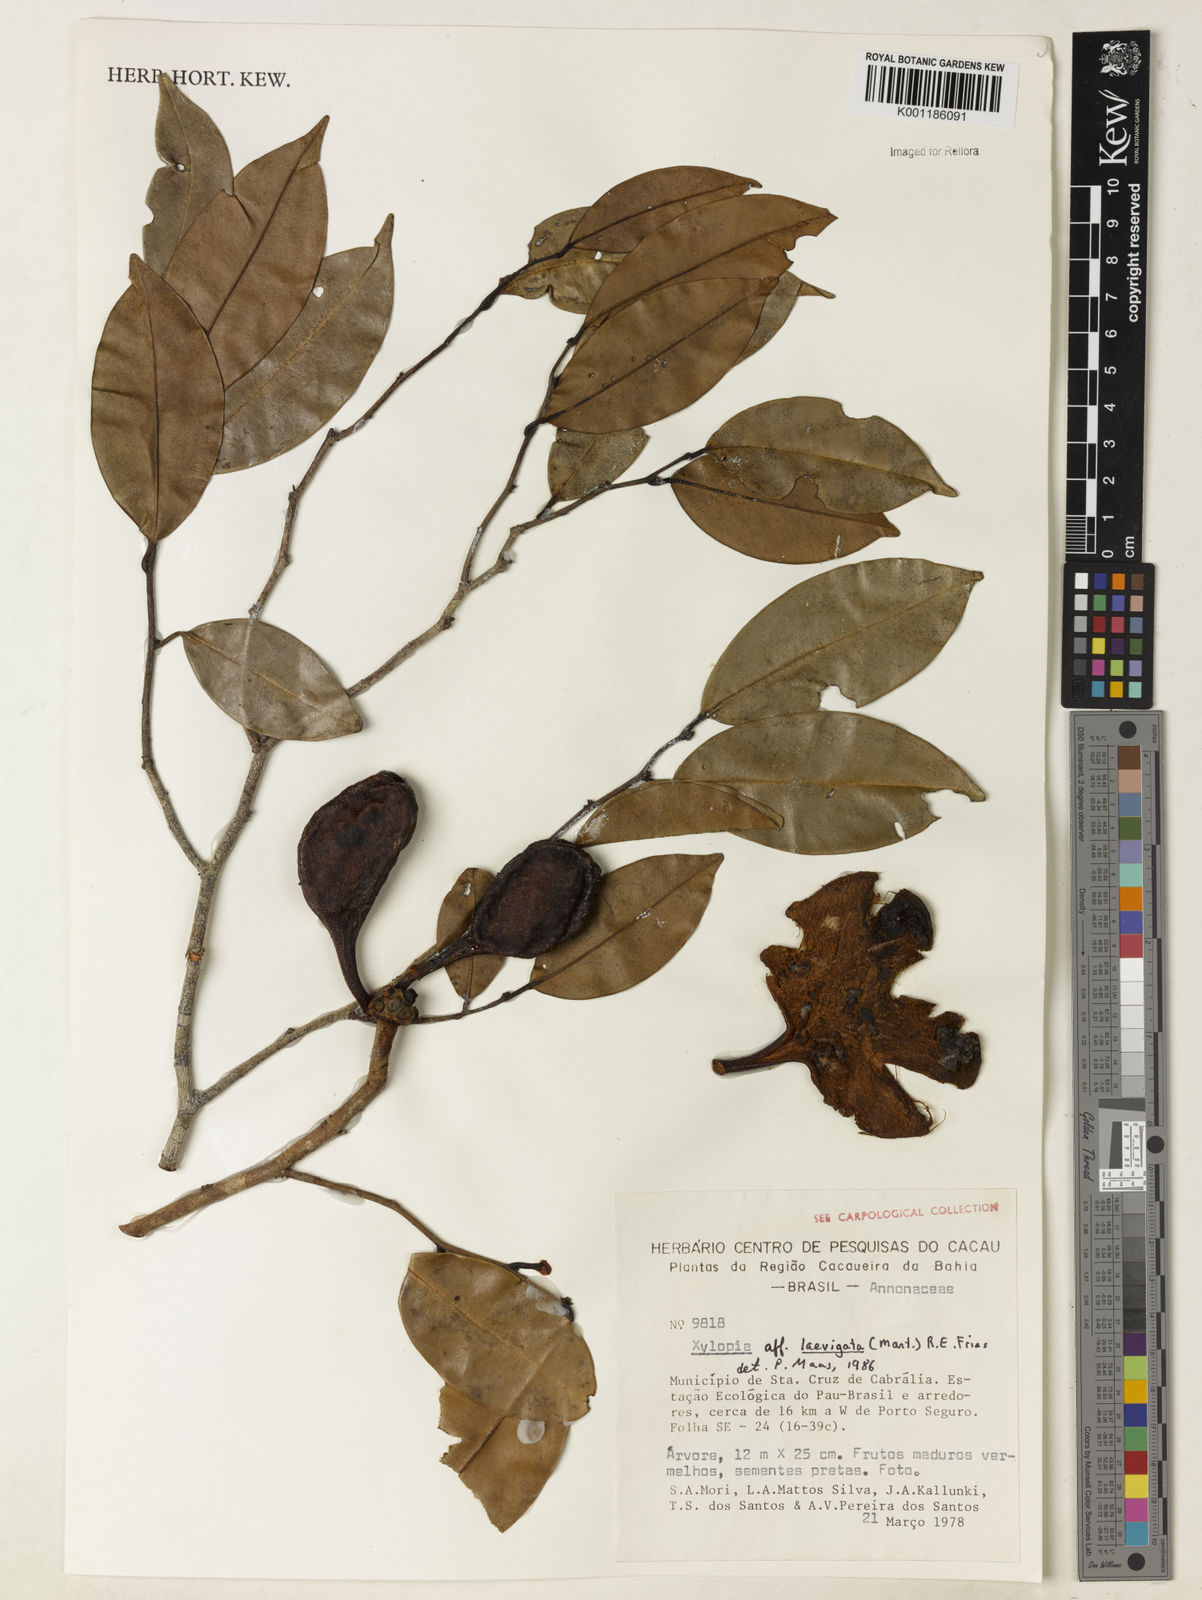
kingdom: Plantae
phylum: Tracheophyta
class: Magnoliopsida
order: Magnoliales
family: Annonaceae
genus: Xylopia
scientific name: Xylopia laevigata
